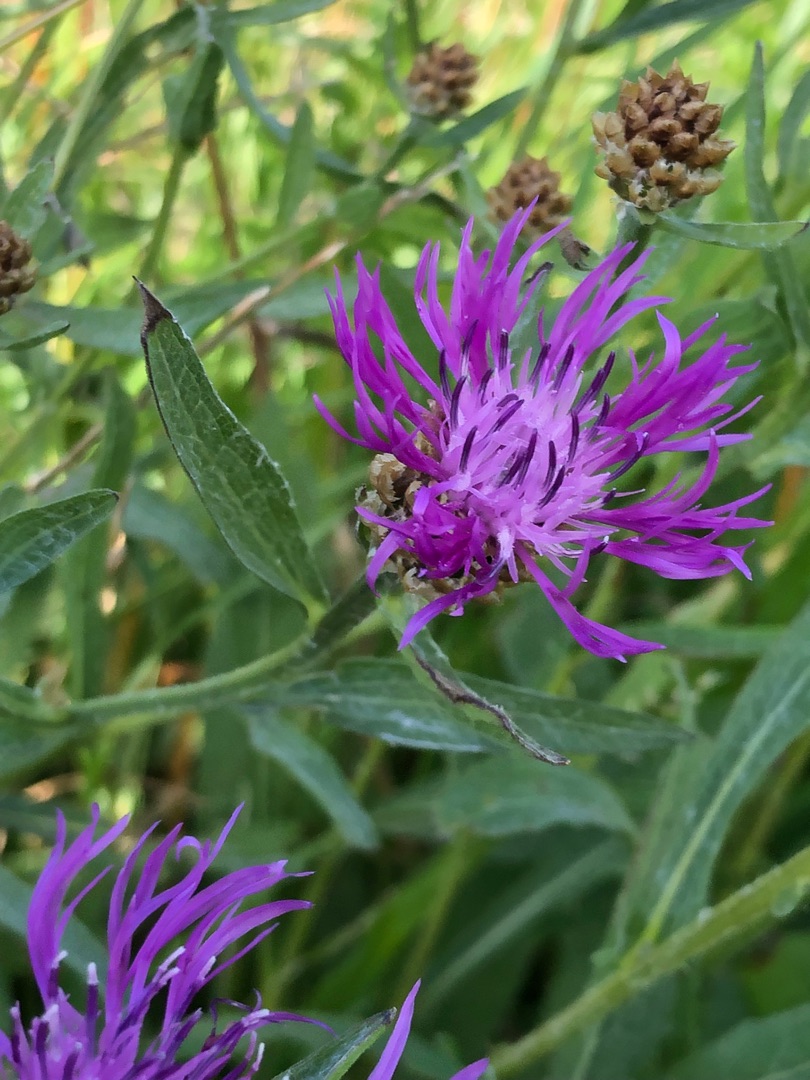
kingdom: Plantae
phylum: Tracheophyta
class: Magnoliopsida
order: Asterales
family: Asteraceae
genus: Centaurea
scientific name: Centaurea jacea
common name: Almindelig knopurt
